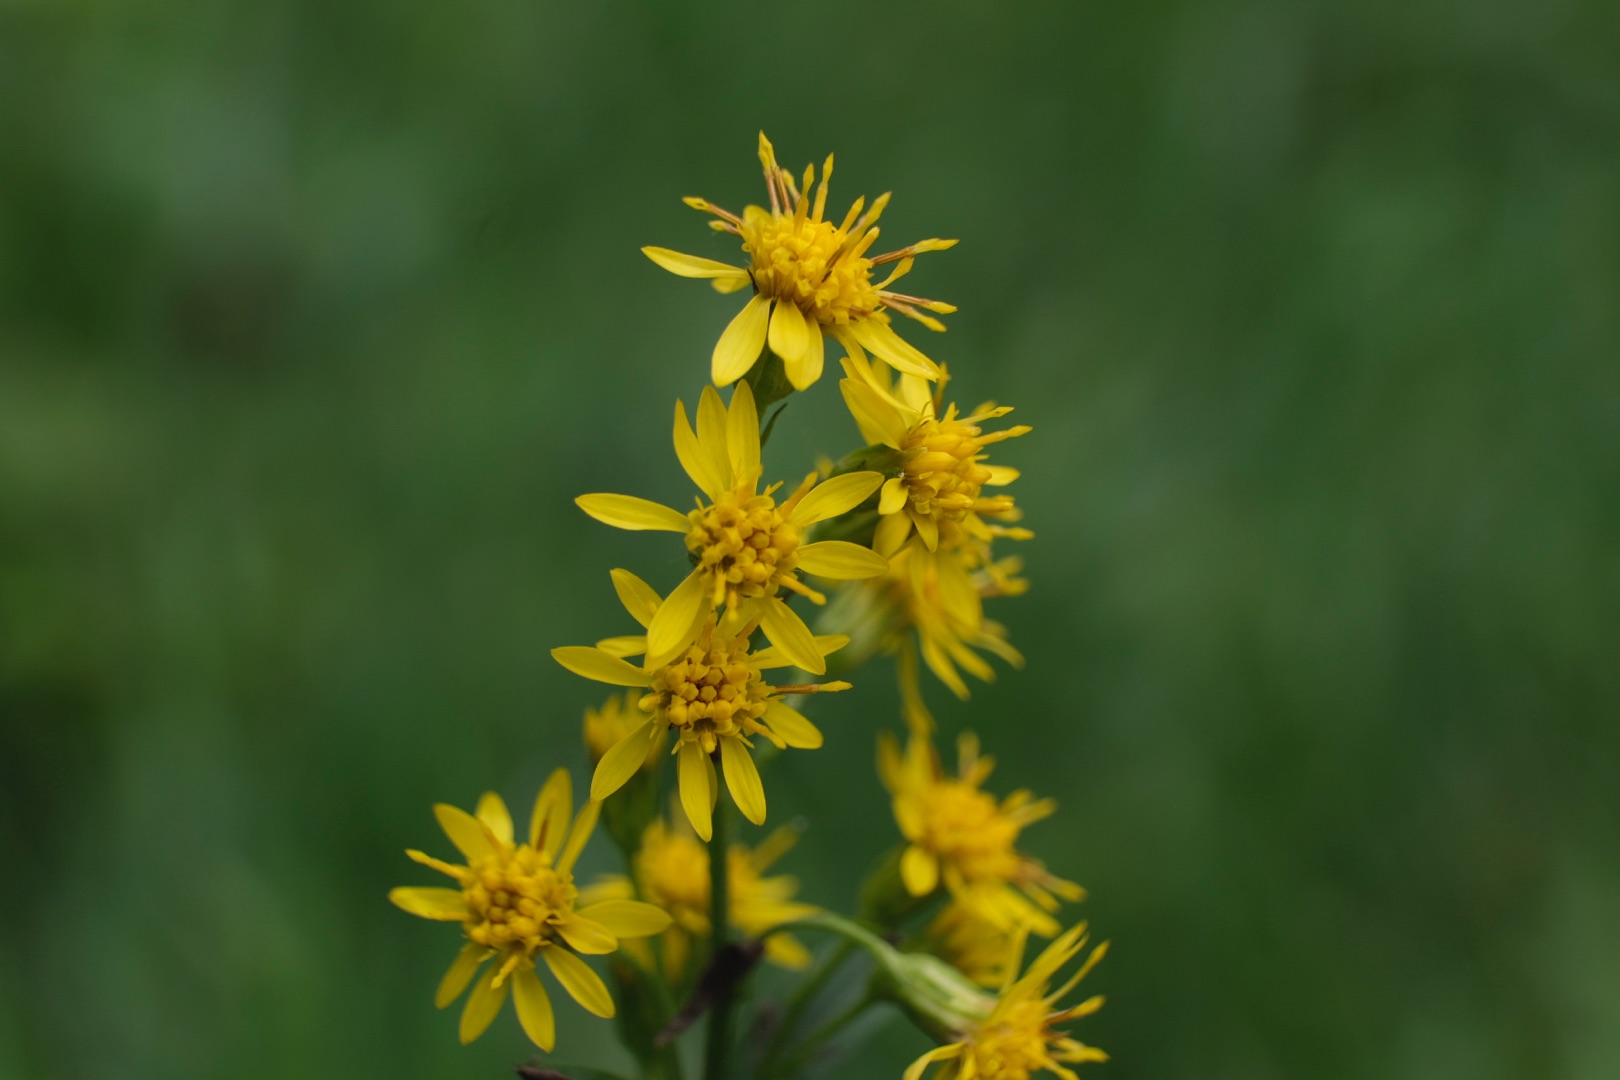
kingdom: Plantae
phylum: Tracheophyta
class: Magnoliopsida
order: Asterales
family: Asteraceae
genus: Solidago
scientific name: Solidago virgaurea
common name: Almindelig gyldenris
